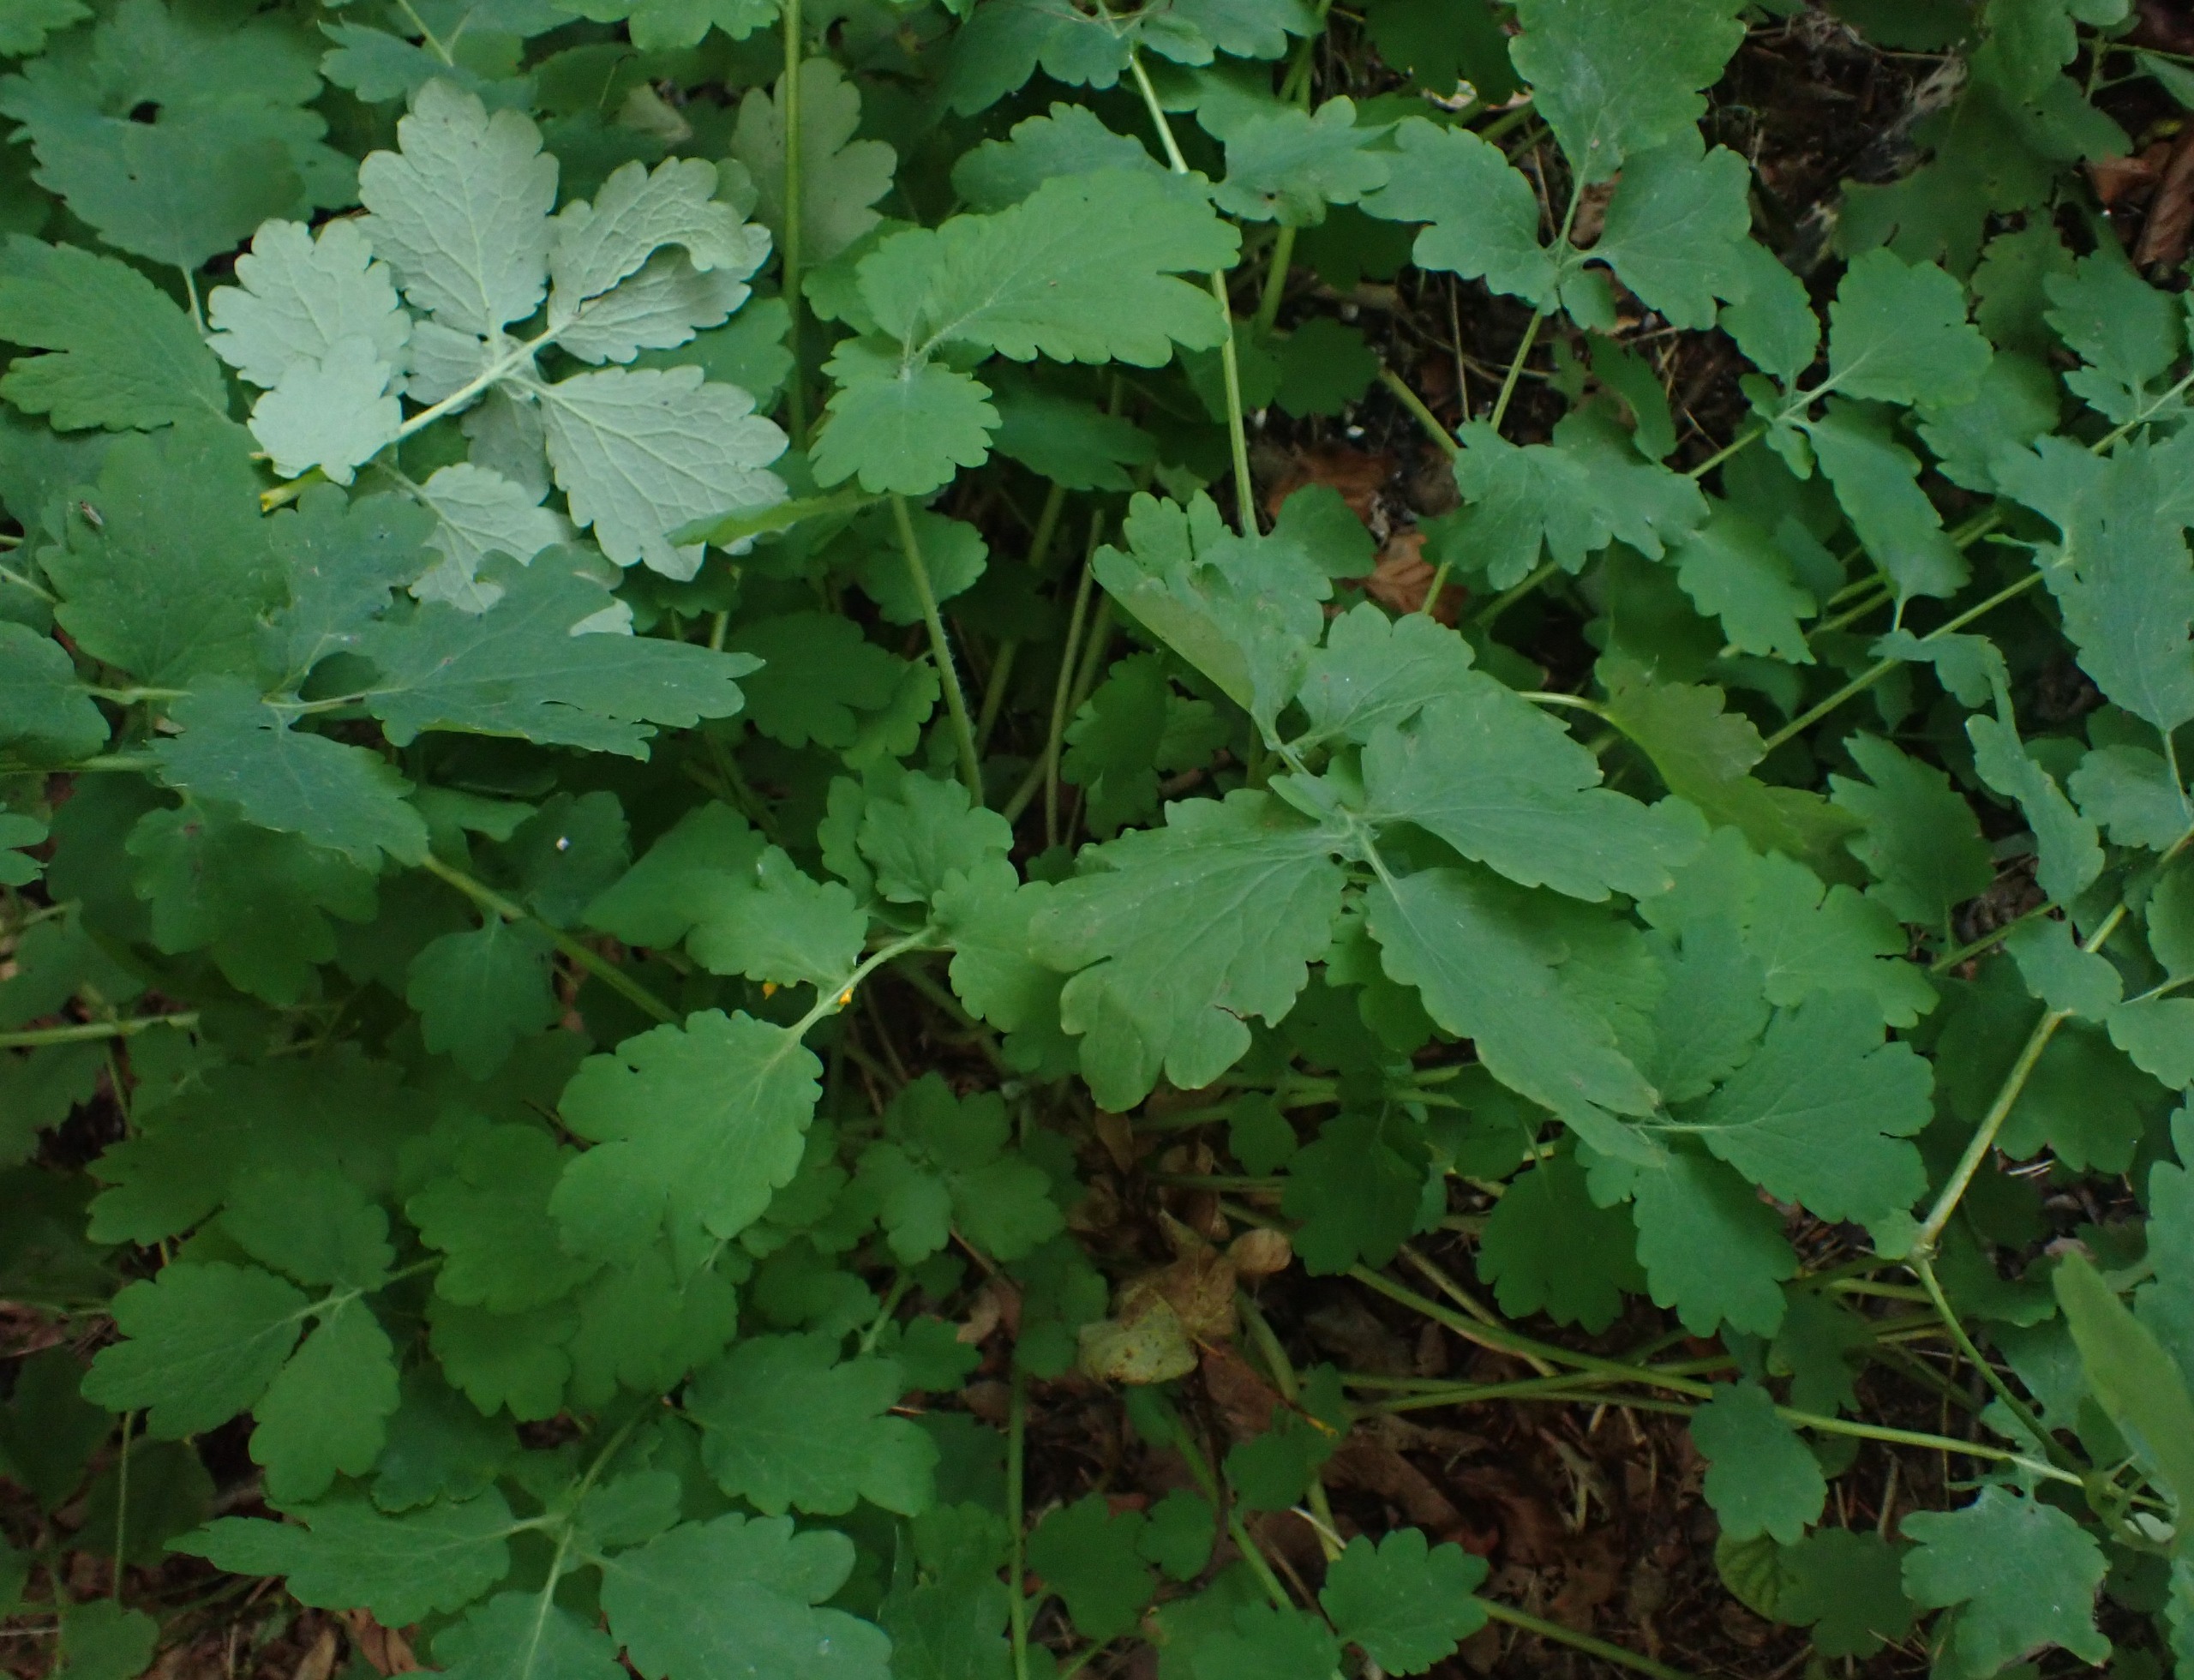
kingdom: Plantae
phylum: Tracheophyta
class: Magnoliopsida
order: Ranunculales
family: Papaveraceae
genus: Chelidonium
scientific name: Chelidonium majus
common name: Svaleurt
